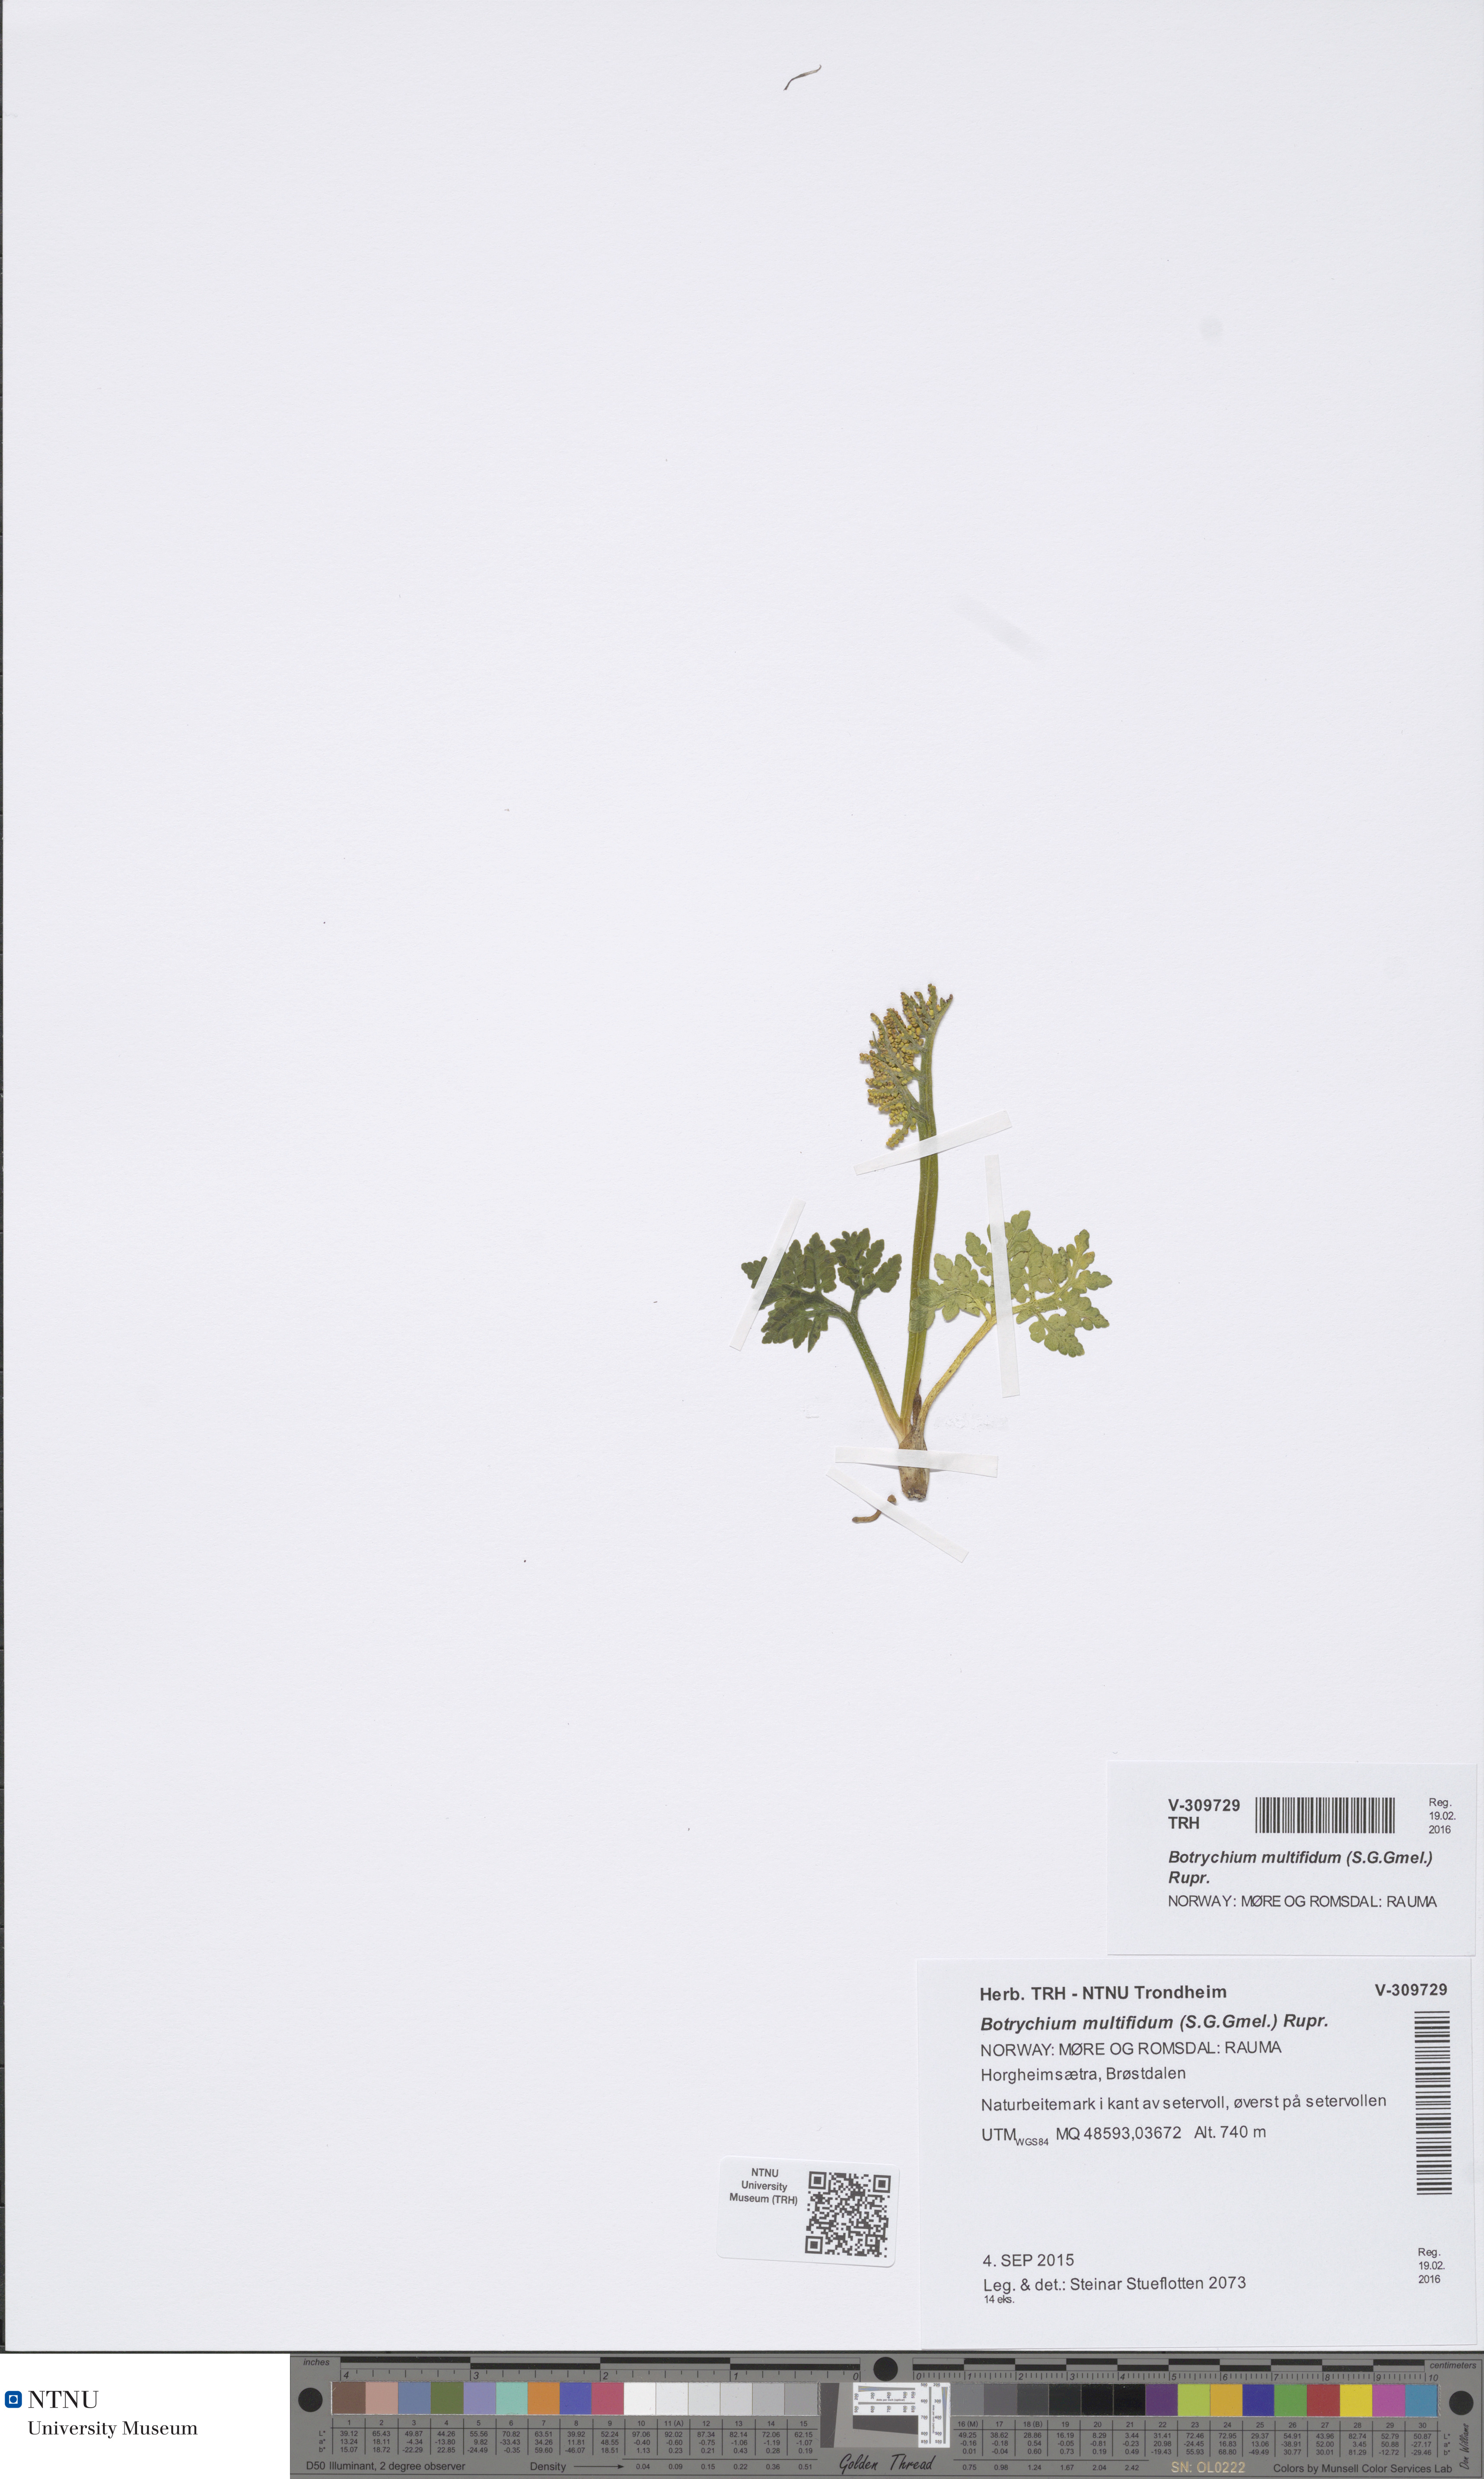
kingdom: Plantae
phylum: Tracheophyta
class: Polypodiopsida
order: Ophioglossales
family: Ophioglossaceae
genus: Sceptridium
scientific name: Sceptridium multifidum
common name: Leathery grape fern
